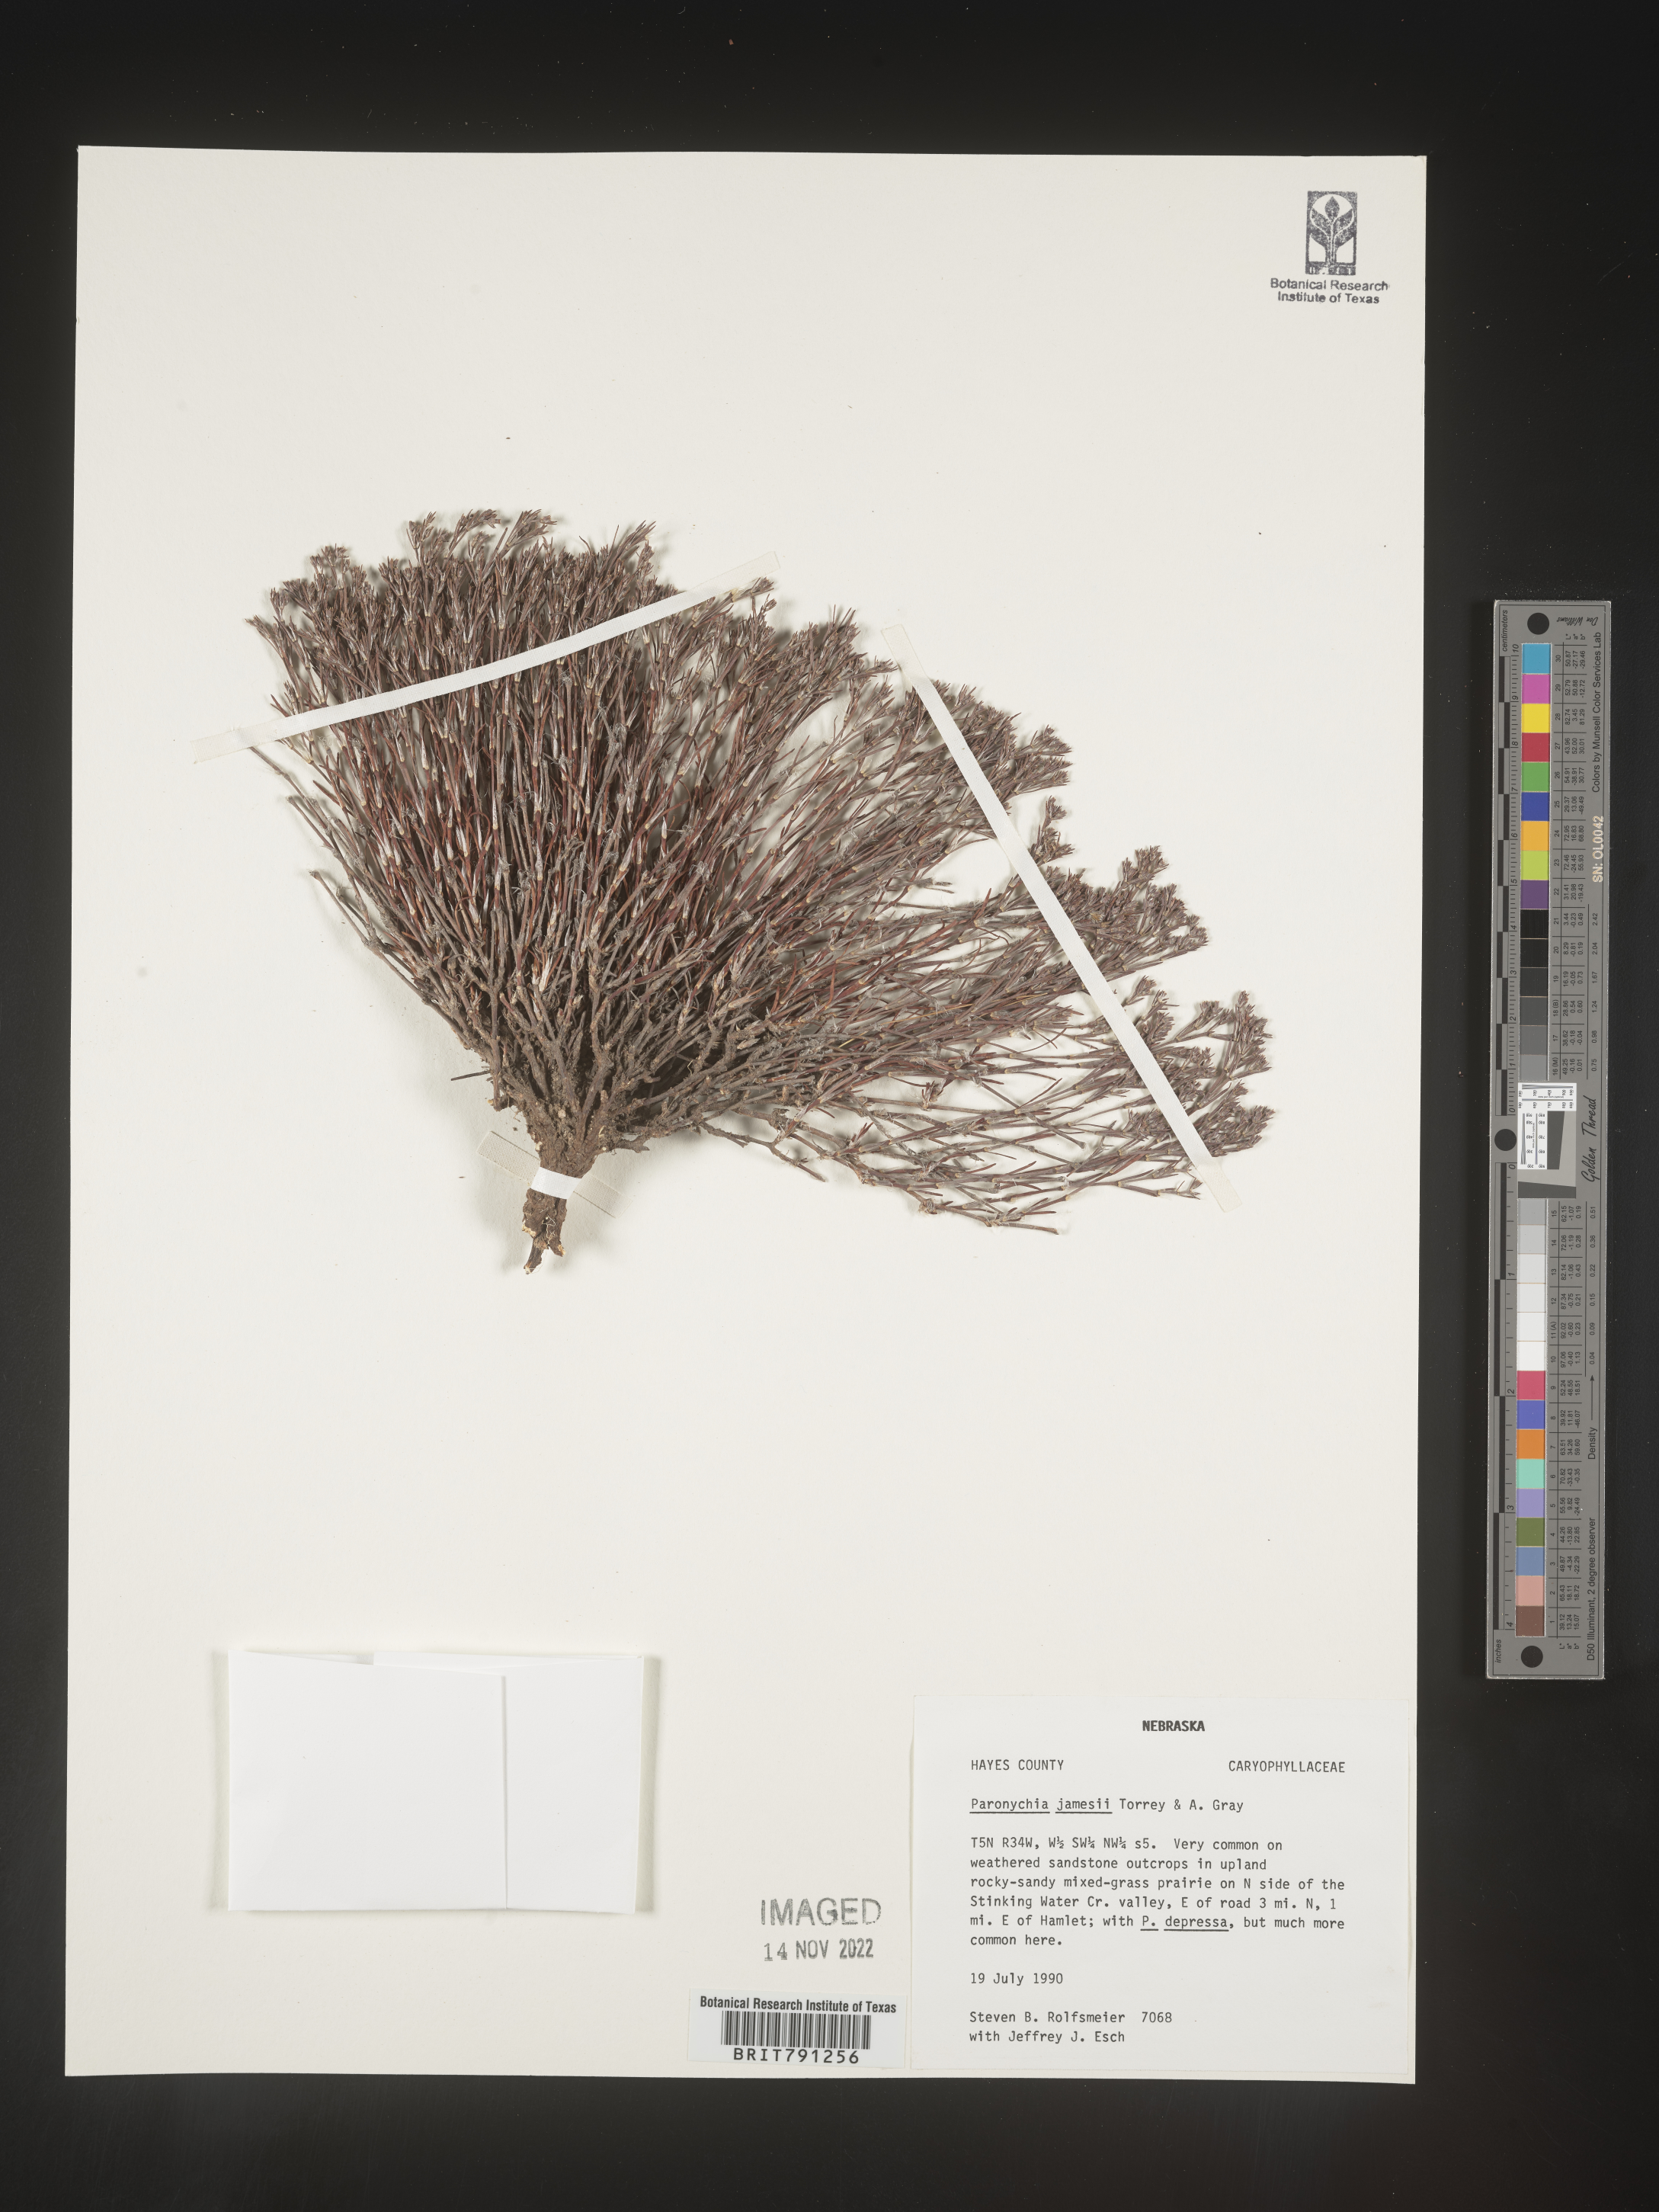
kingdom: Plantae
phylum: Tracheophyta
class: Magnoliopsida
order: Caryophyllales
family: Caryophyllaceae
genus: Paronychia
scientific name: Paronychia jamesii
